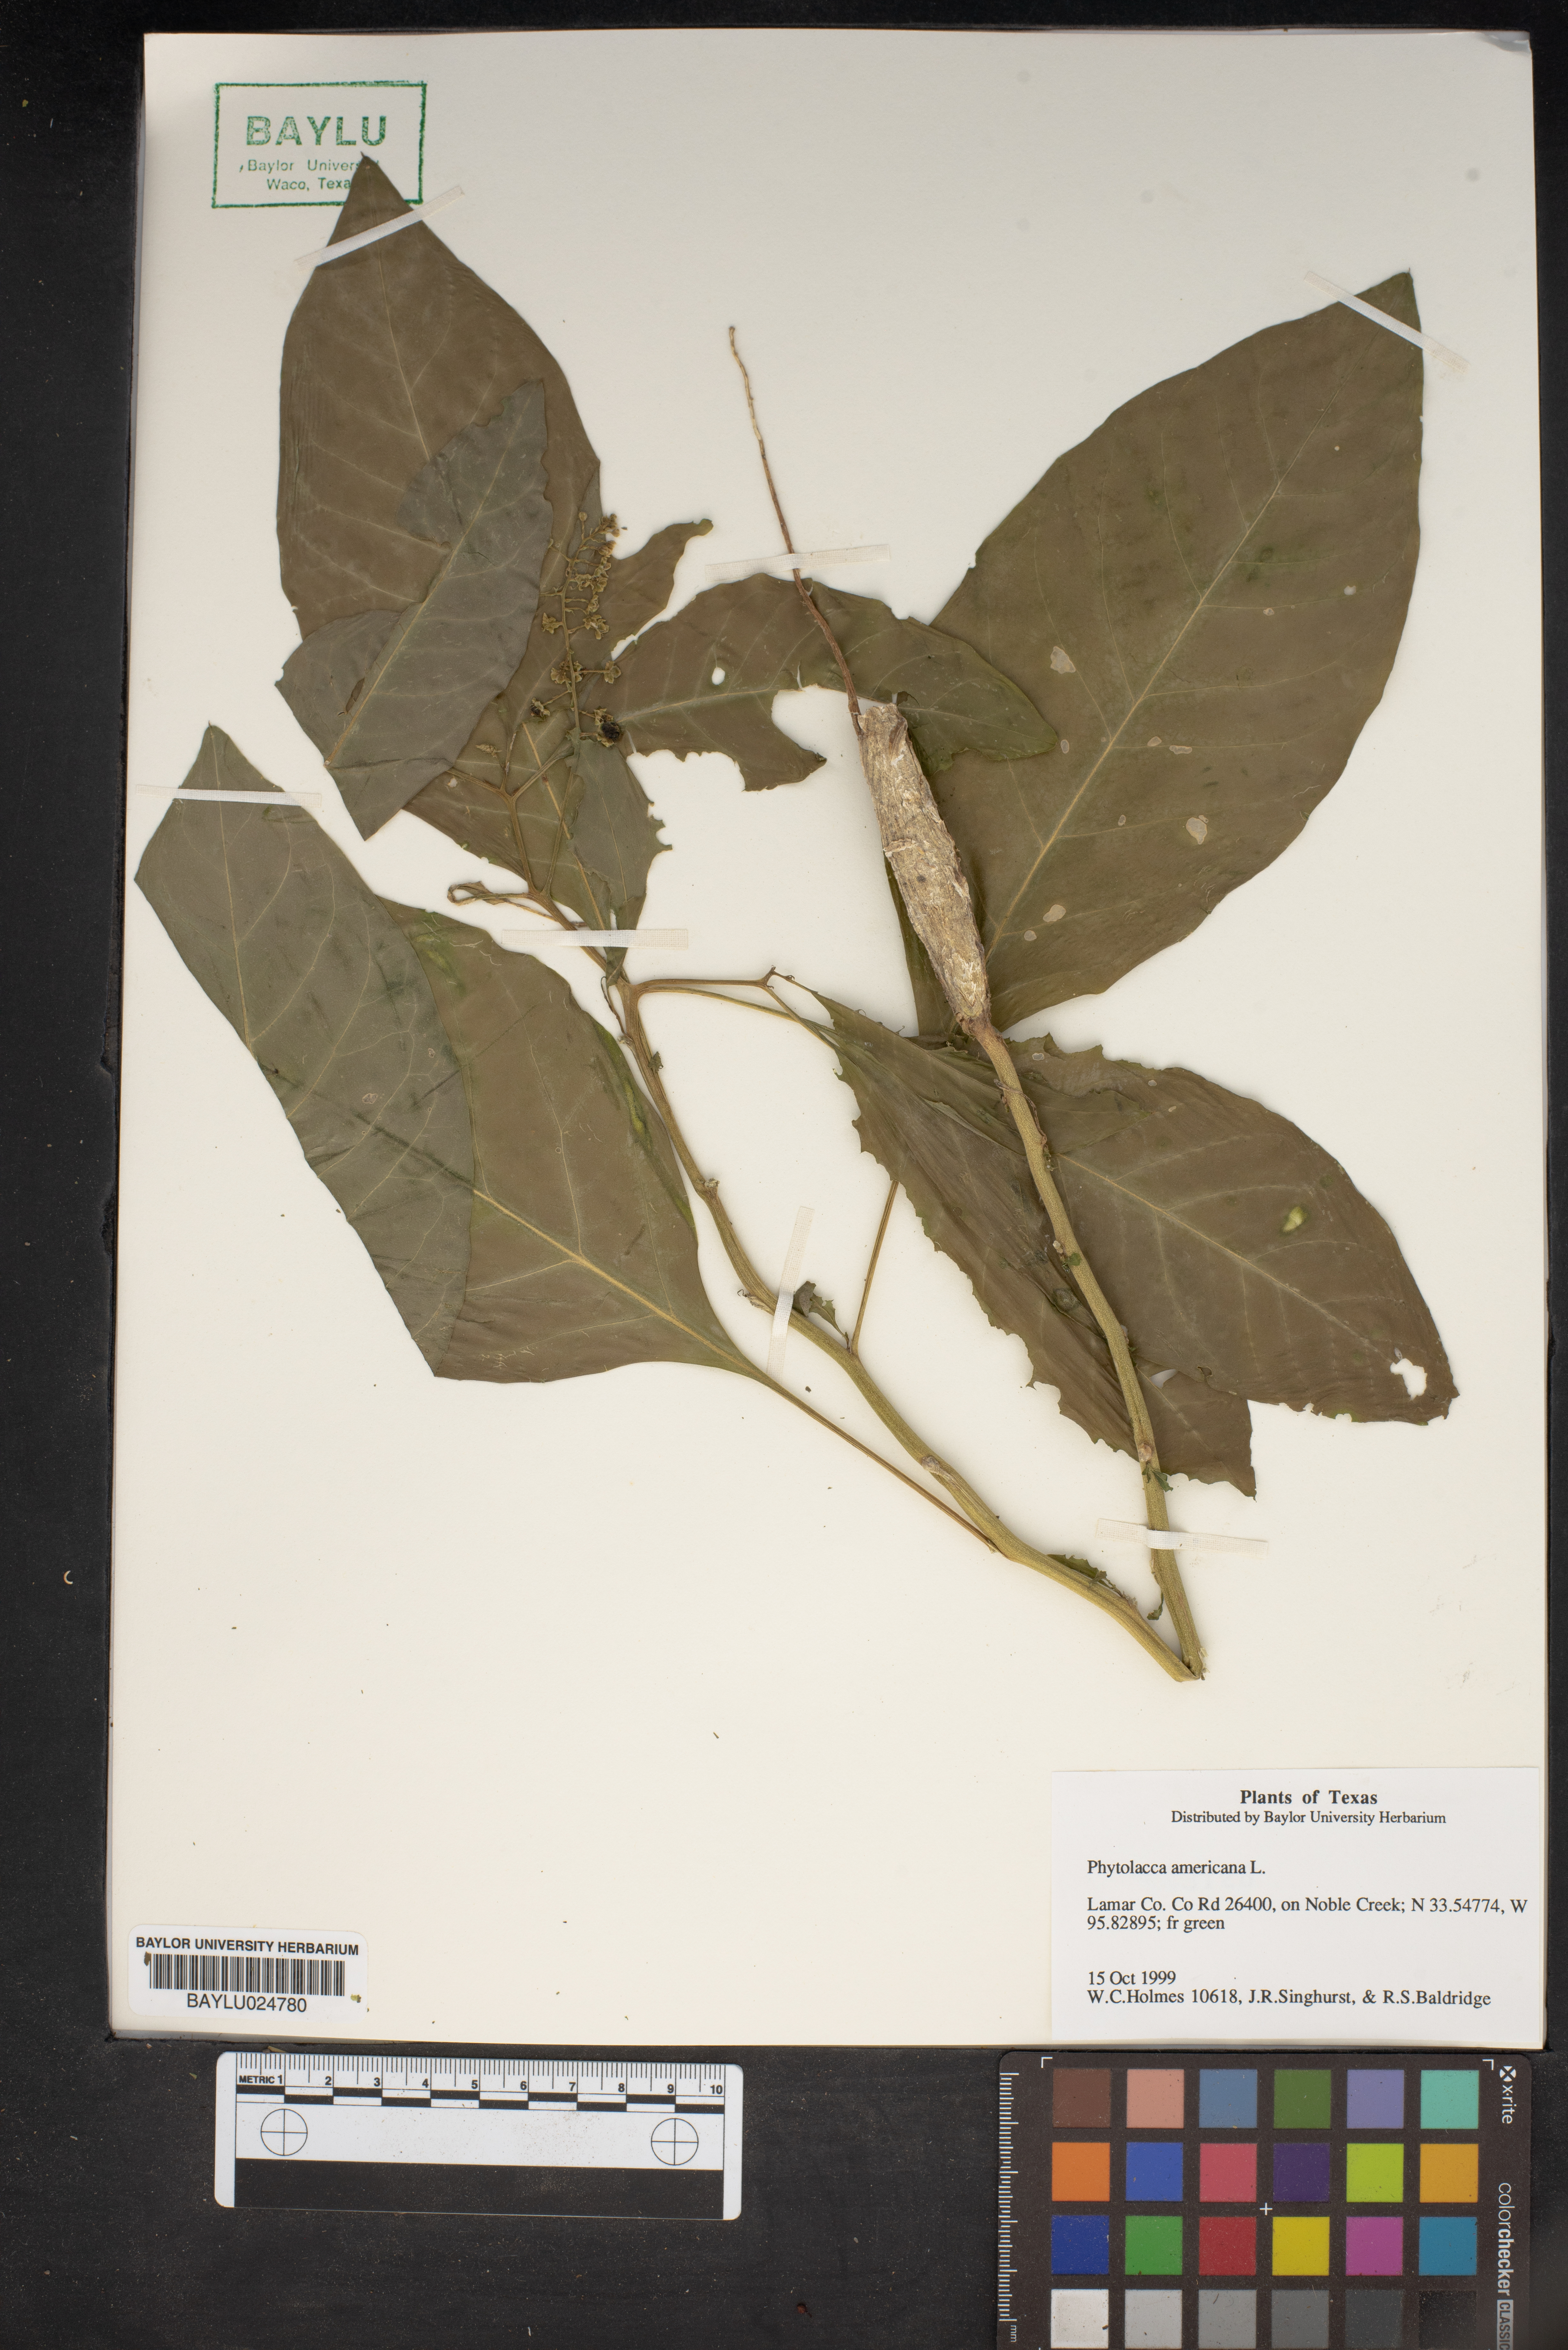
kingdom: Plantae
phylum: Tracheophyta
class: Magnoliopsida
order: Caryophyllales
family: Phytolaccaceae
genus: Phytolacca
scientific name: Phytolacca americana
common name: American pokeweed
